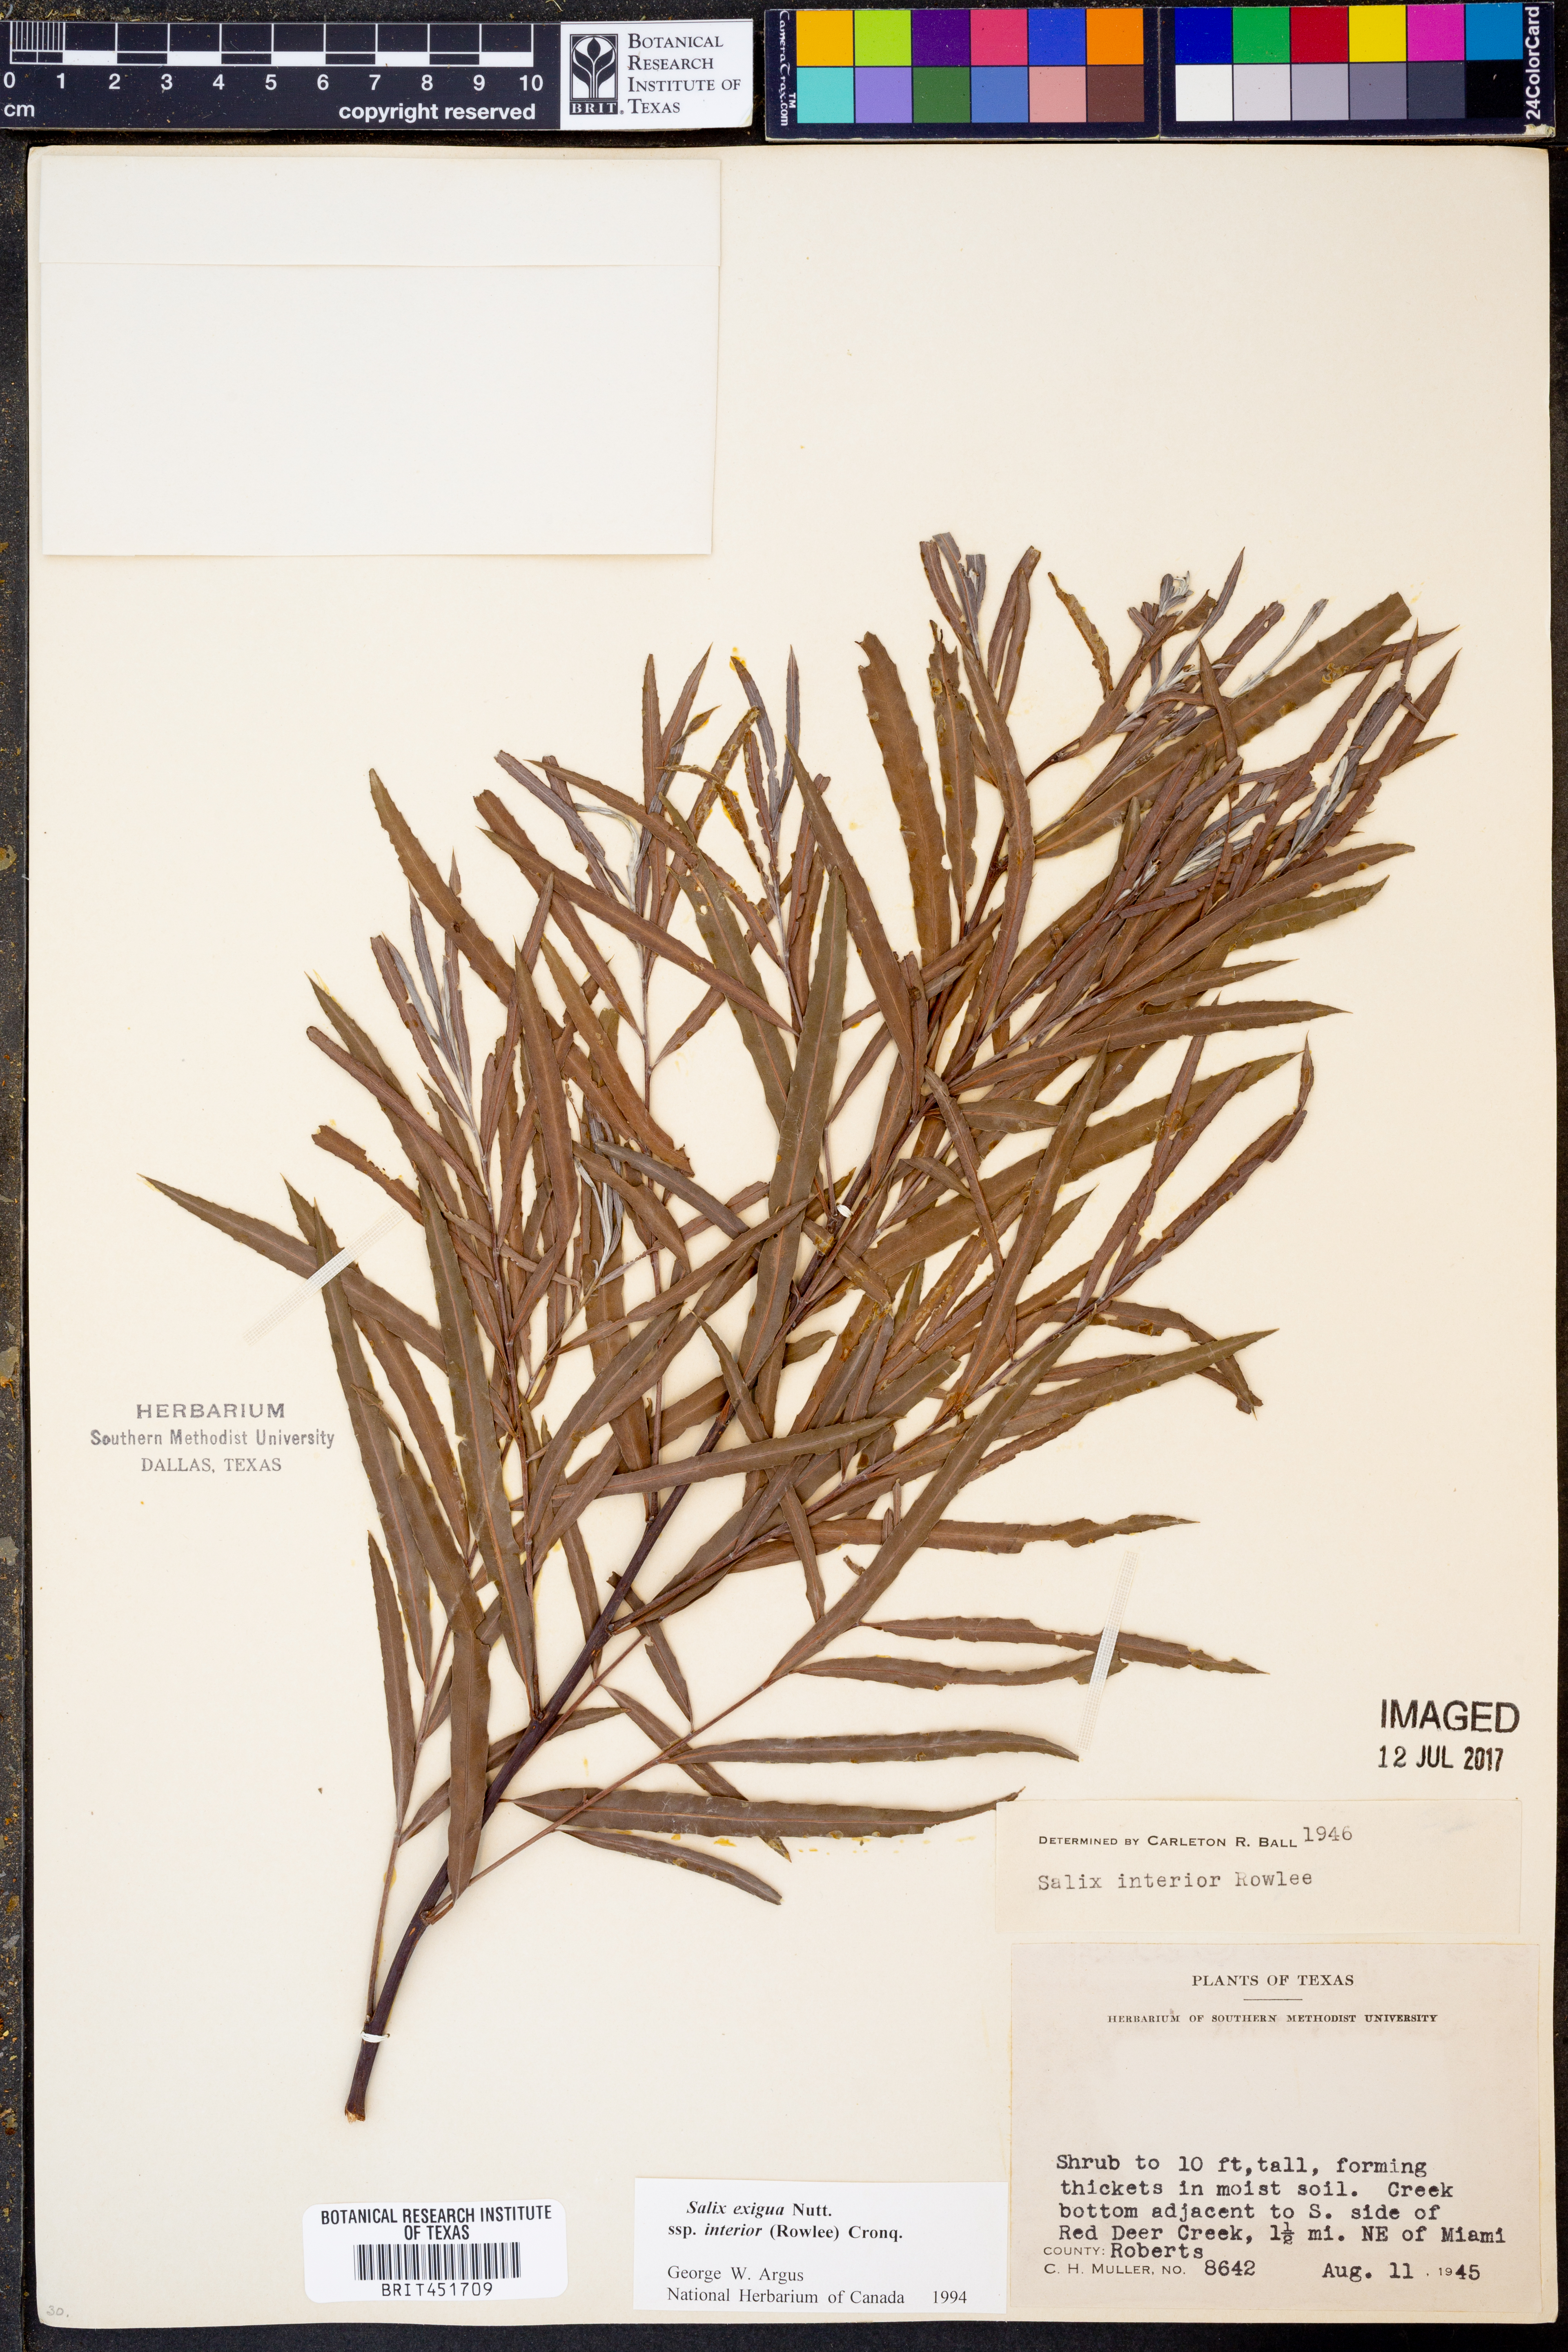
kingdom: Plantae
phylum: Tracheophyta
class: Magnoliopsida
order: Malpighiales
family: Salicaceae
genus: Salix
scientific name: Salix interior
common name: Sandbar willow
